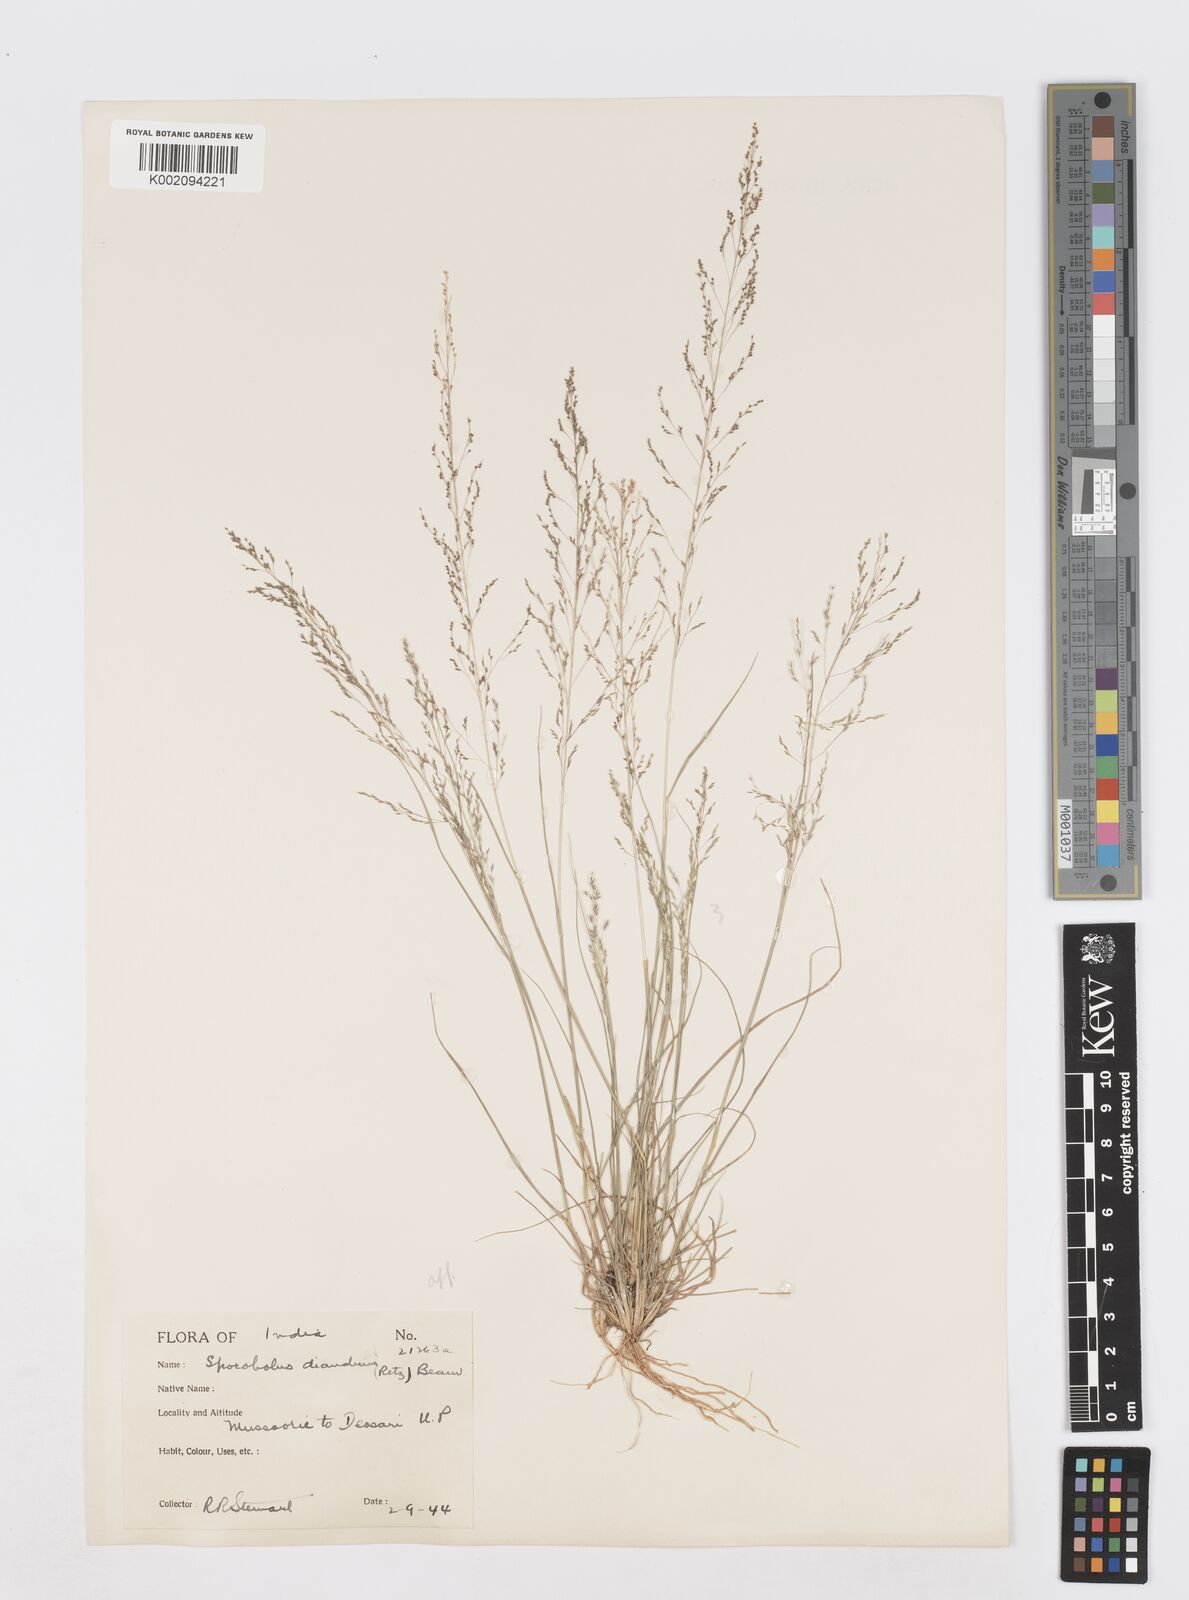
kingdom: Plantae
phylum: Tracheophyta
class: Liliopsida
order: Poales
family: Poaceae
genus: Sporobolus
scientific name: Sporobolus diandrus
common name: Tussock dropseed
